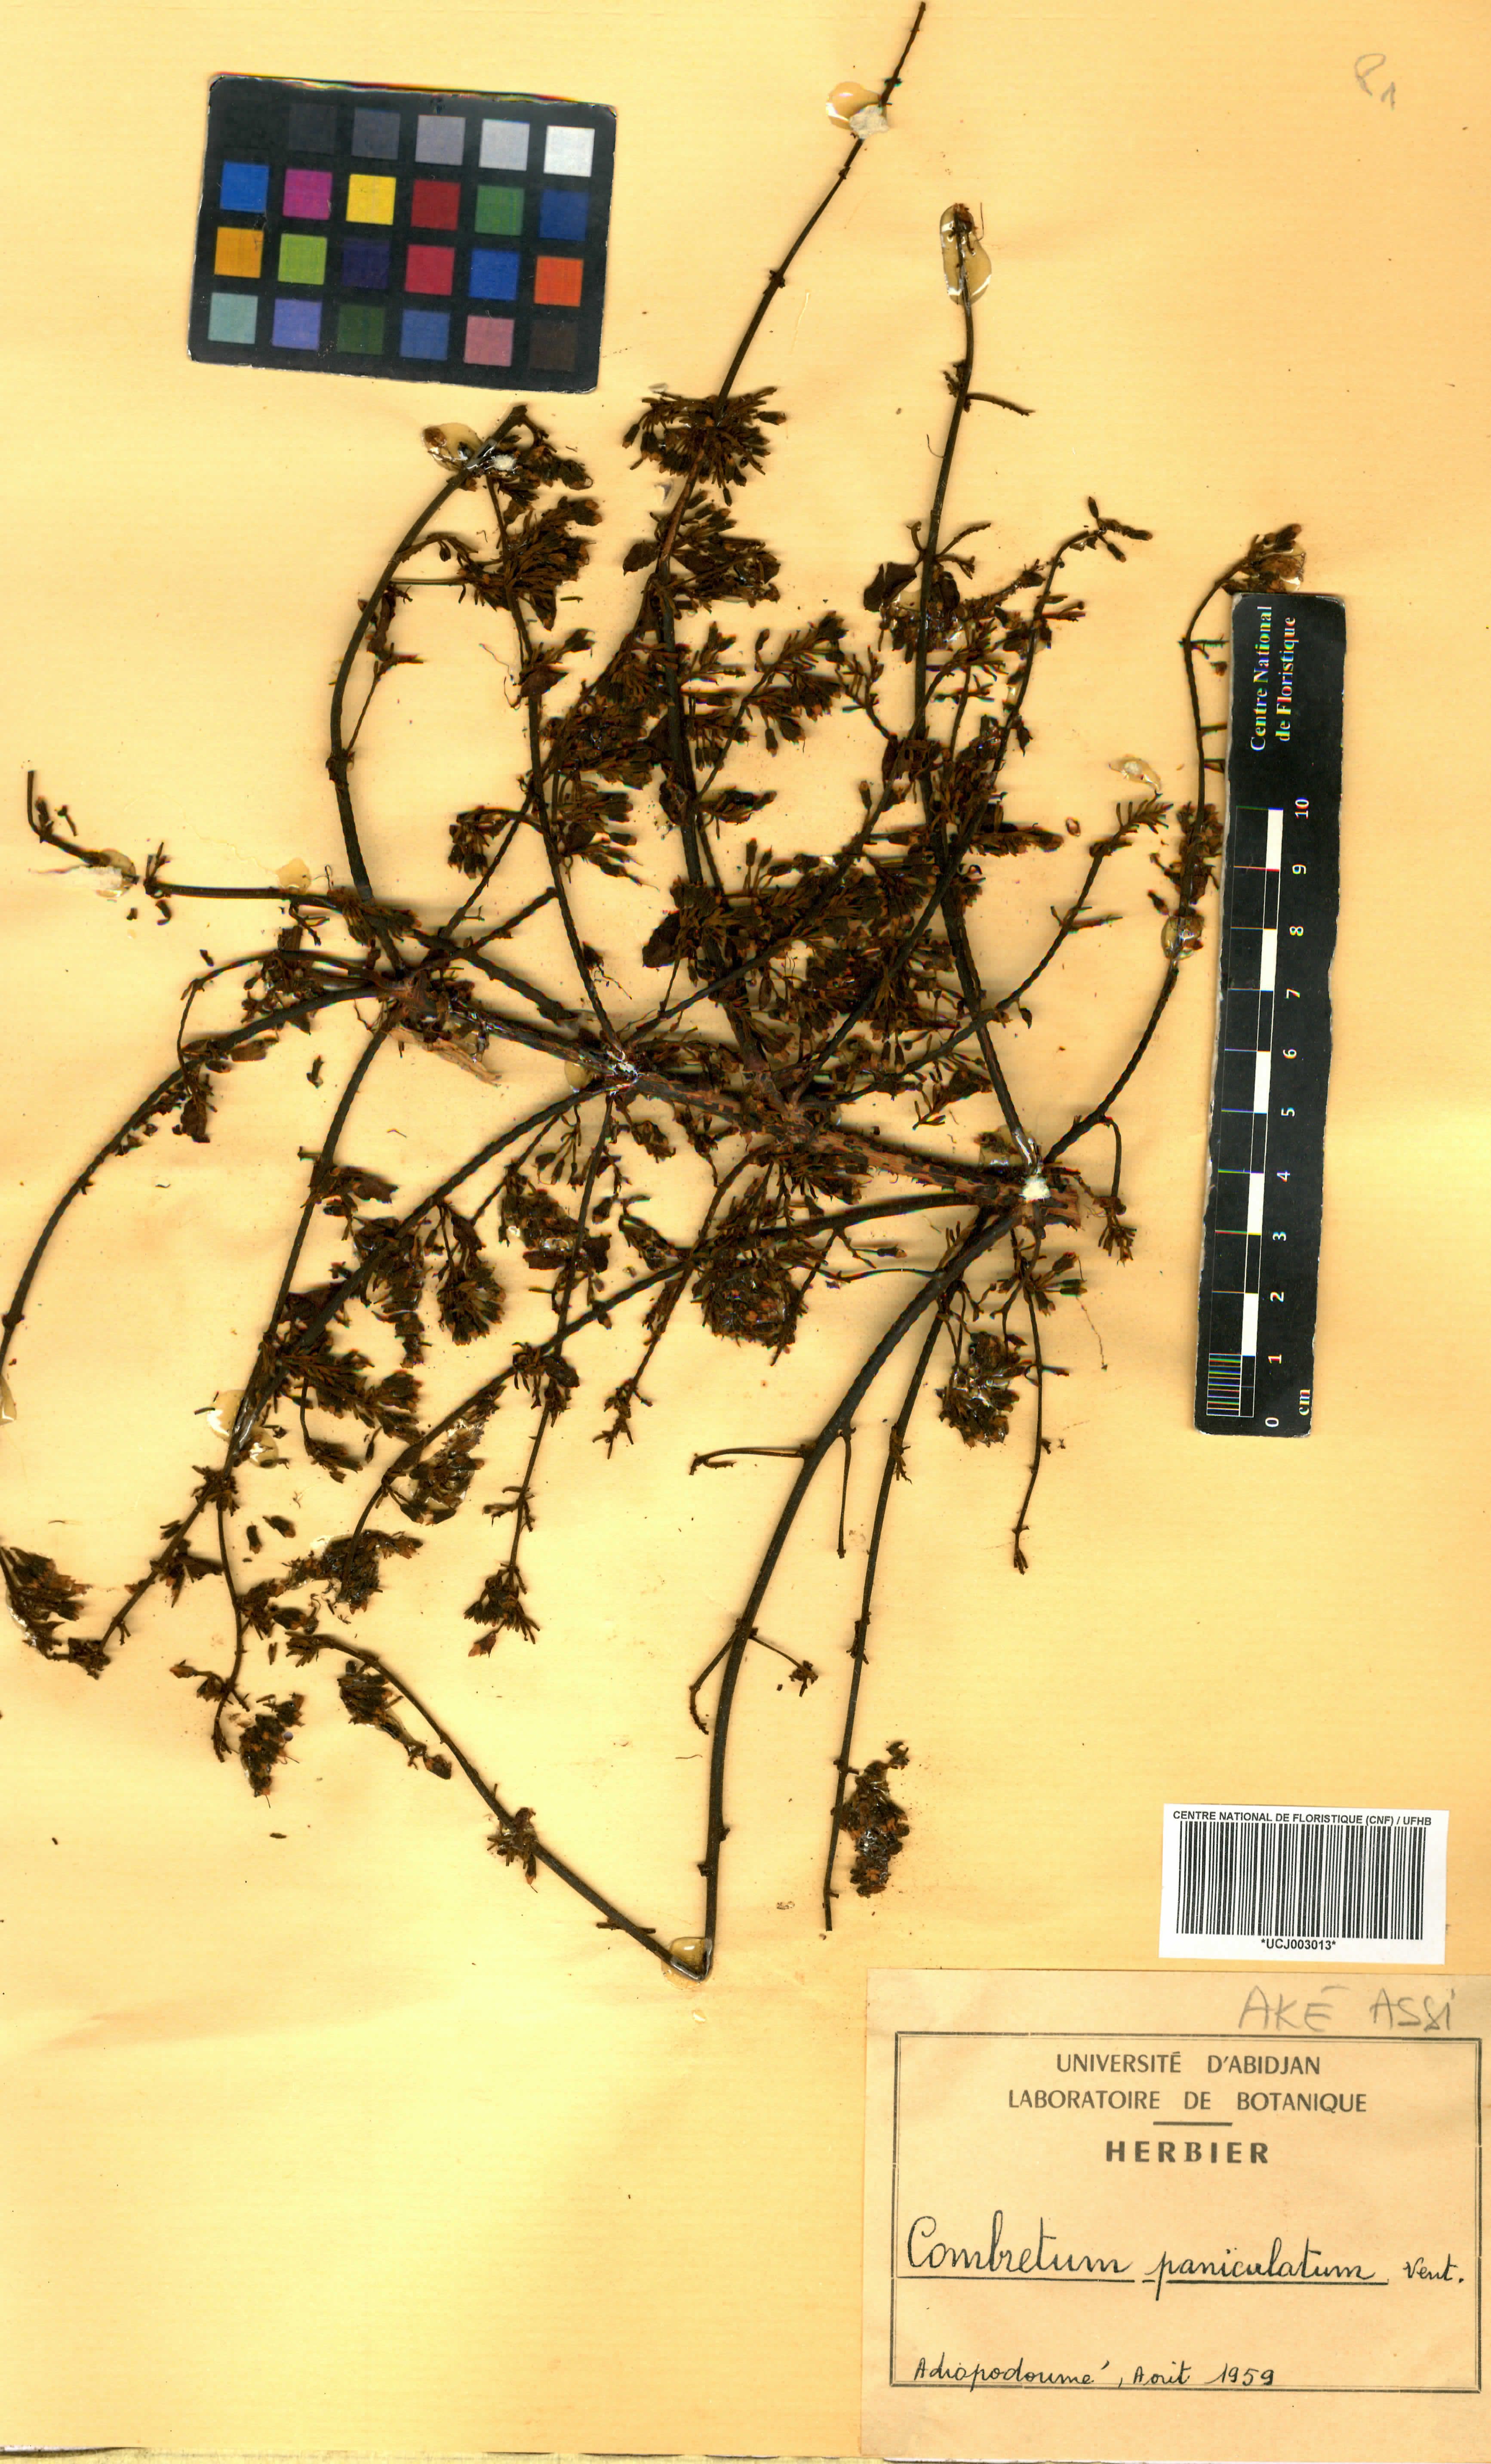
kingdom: Plantae
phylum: Tracheophyta
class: Magnoliopsida
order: Myrtales
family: Combretaceae
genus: Combretum
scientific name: Combretum paniculatum
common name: Fire vine
